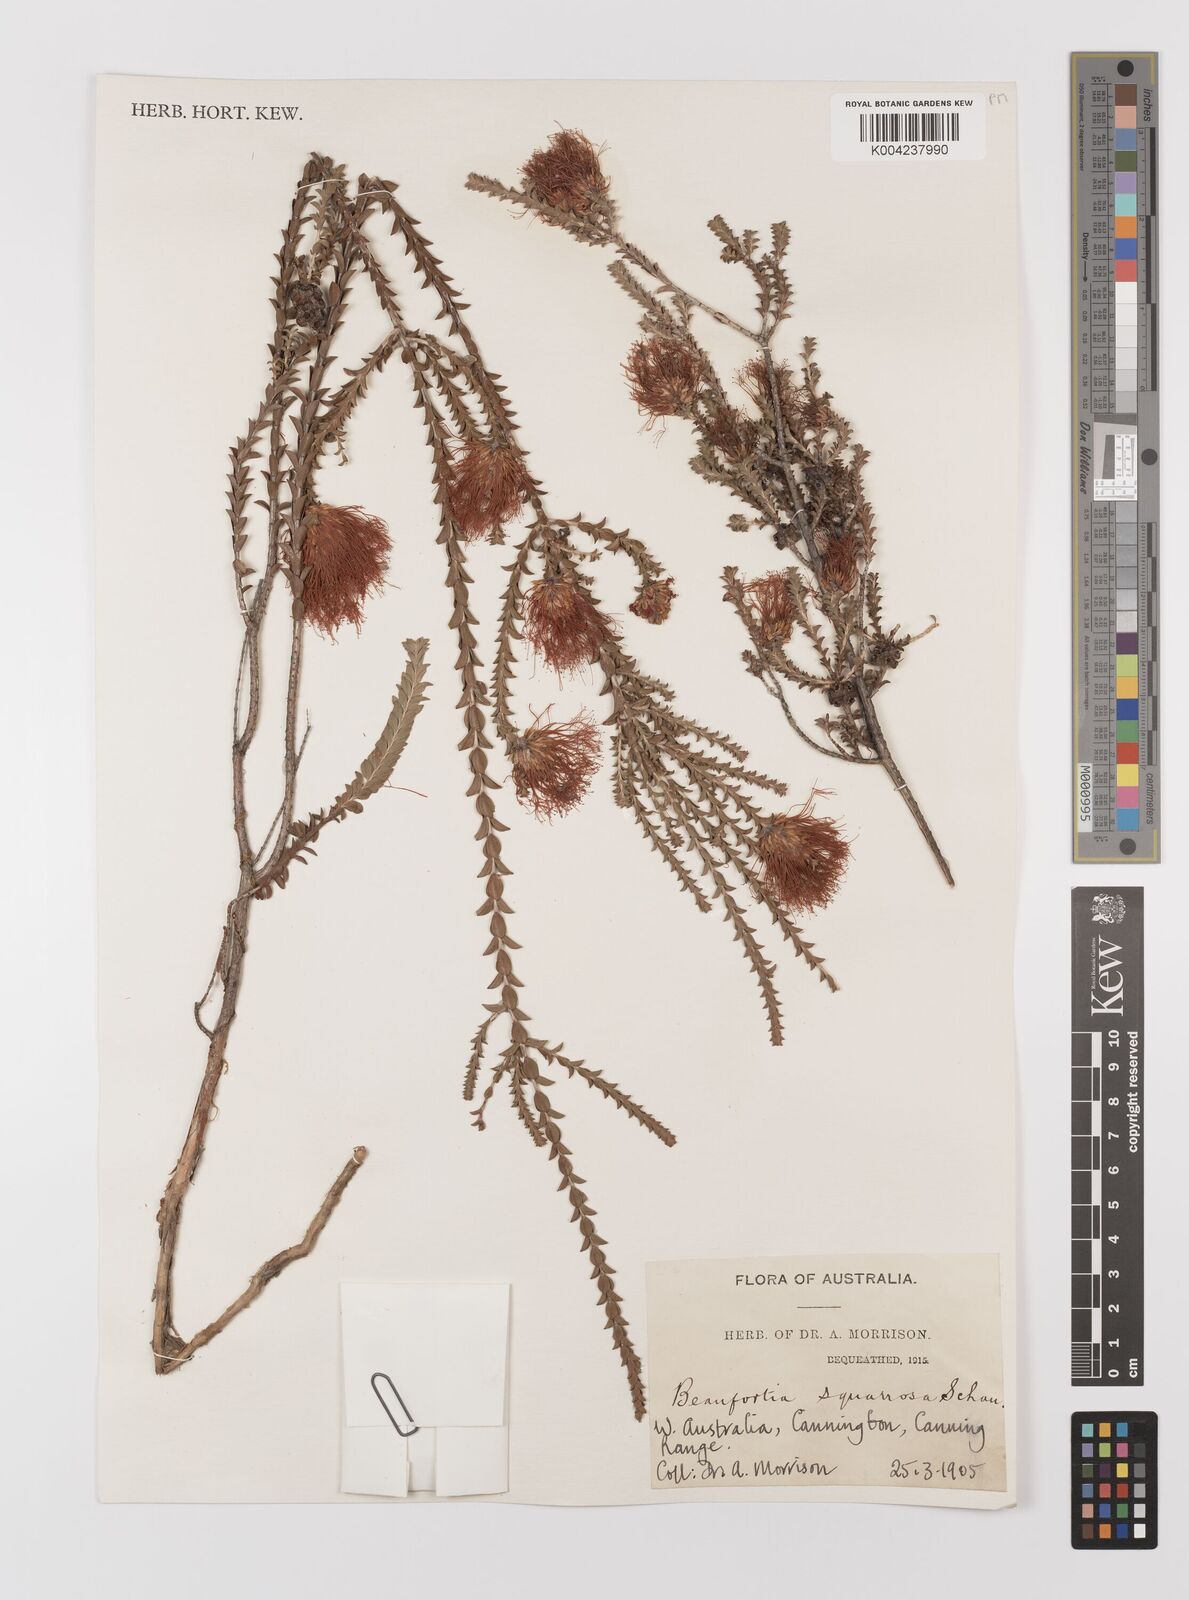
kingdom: Plantae
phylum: Tracheophyta
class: Magnoliopsida
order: Myrtales
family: Myrtaceae
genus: Melaleuca
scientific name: Melaleuca pulcherrima
